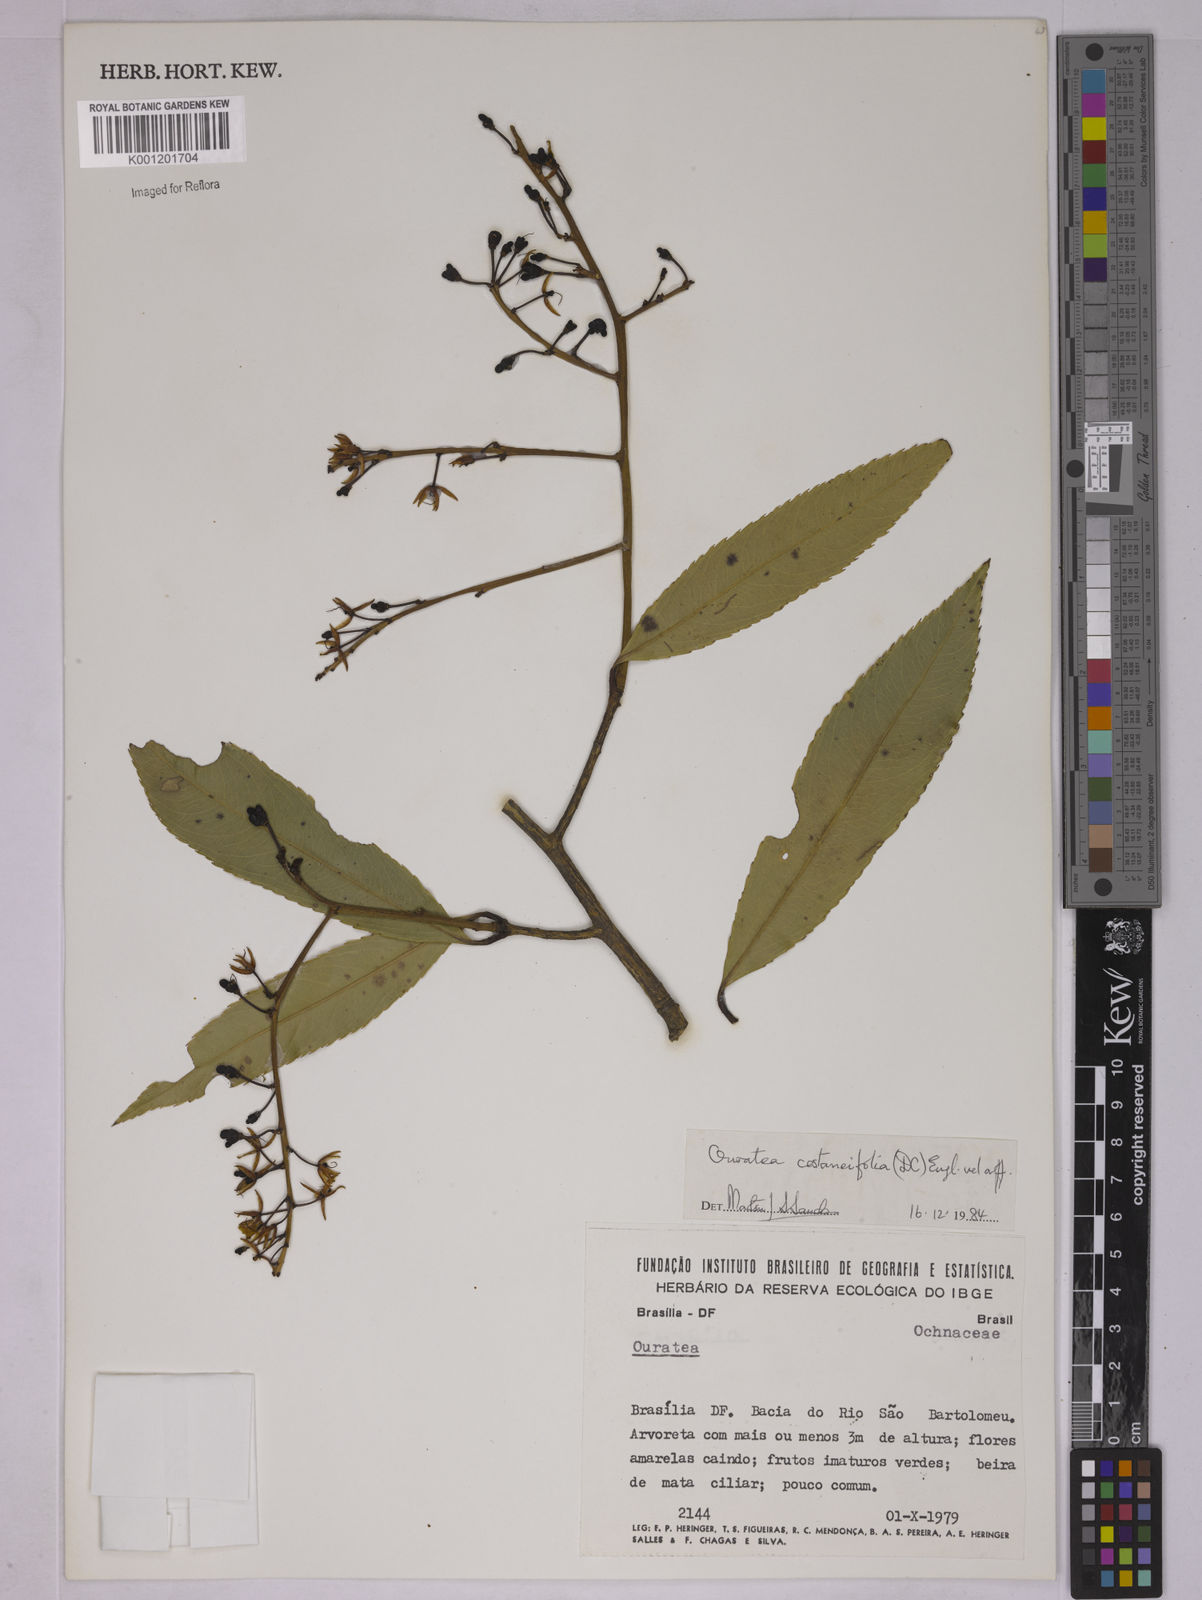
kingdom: Plantae
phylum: Tracheophyta
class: Magnoliopsida
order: Malpighiales
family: Ochnaceae
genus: Ouratea
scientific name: Ouratea castaneifolia
